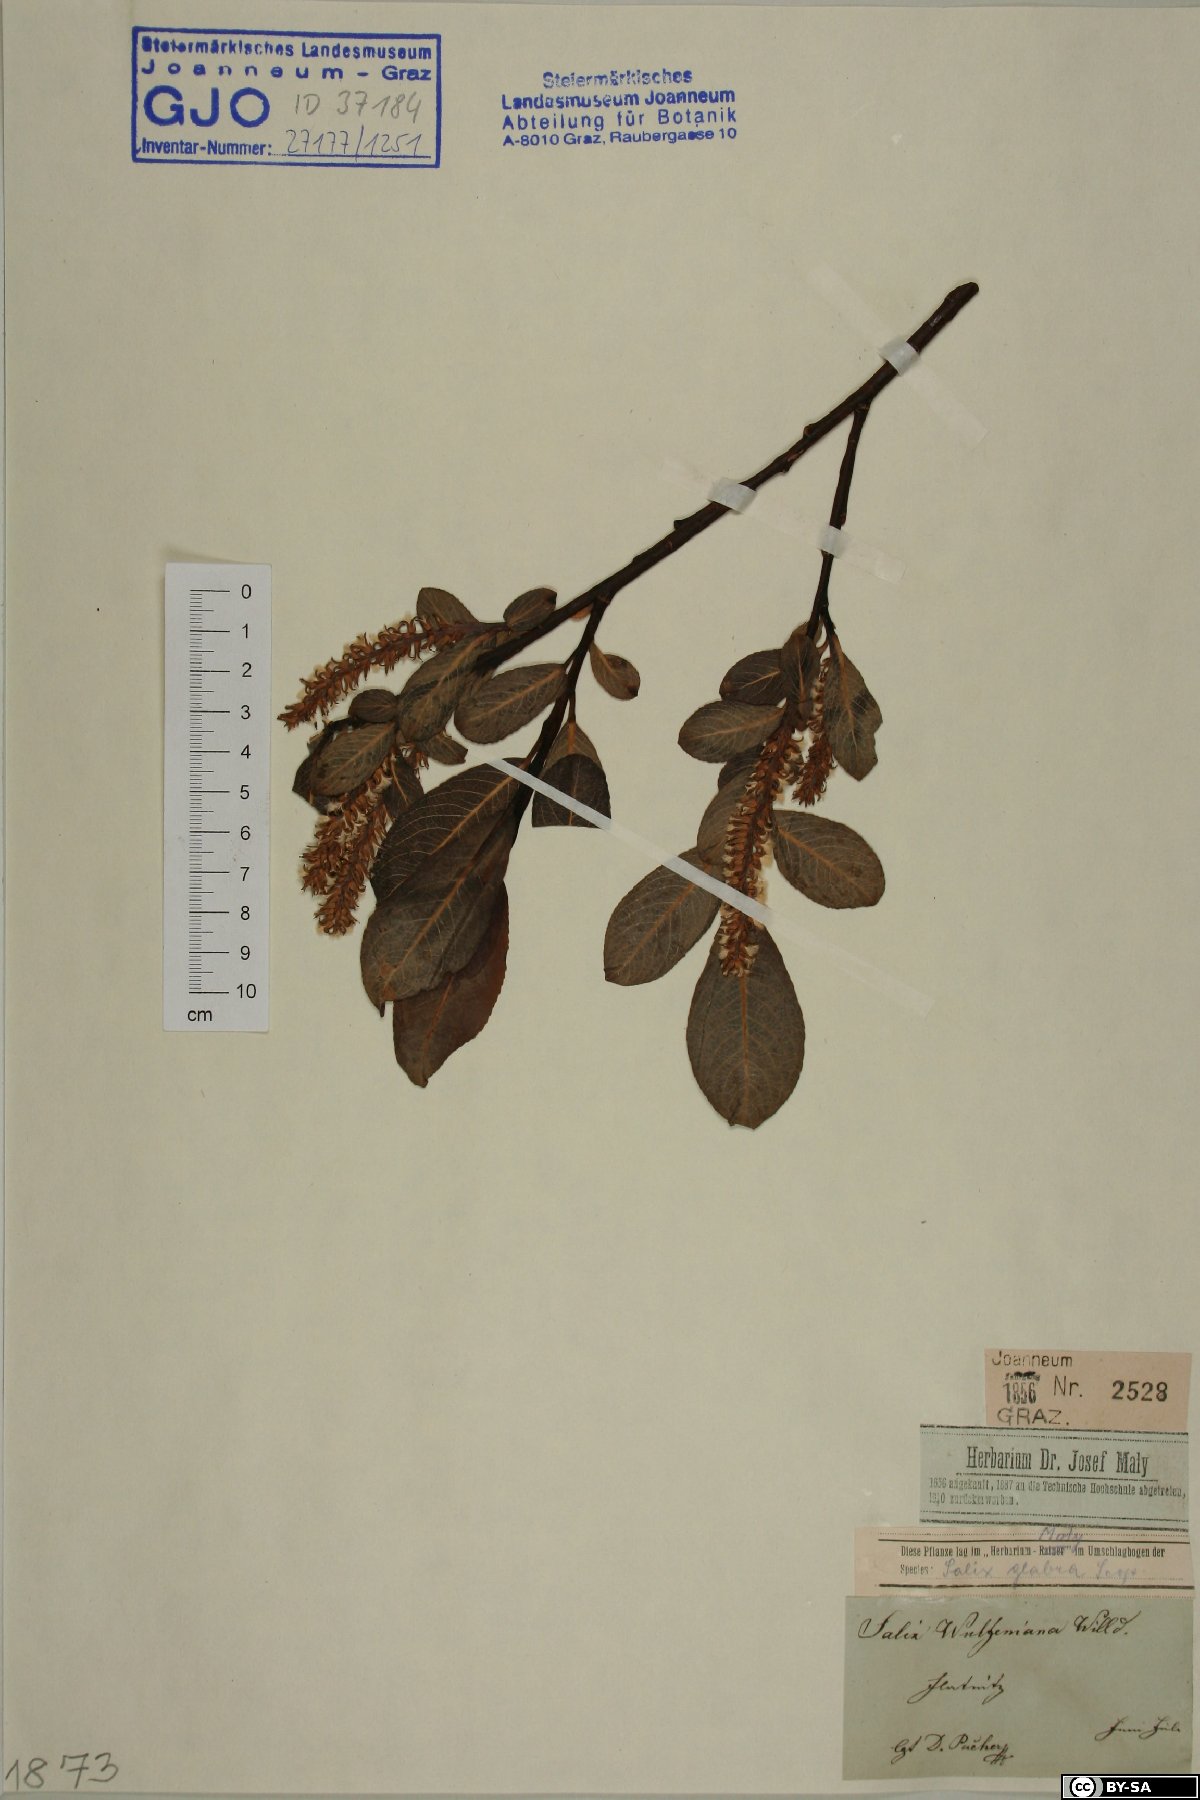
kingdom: Plantae
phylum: Tracheophyta
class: Magnoliopsida
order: Malpighiales
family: Salicaceae
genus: Salix
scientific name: Salix glabra
